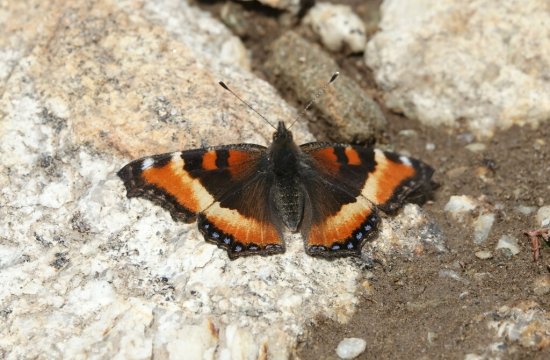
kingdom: Animalia
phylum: Arthropoda
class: Insecta
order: Lepidoptera
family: Nymphalidae
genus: Aglais
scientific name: Aglais milberti
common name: Milbert's Tortoiseshell
